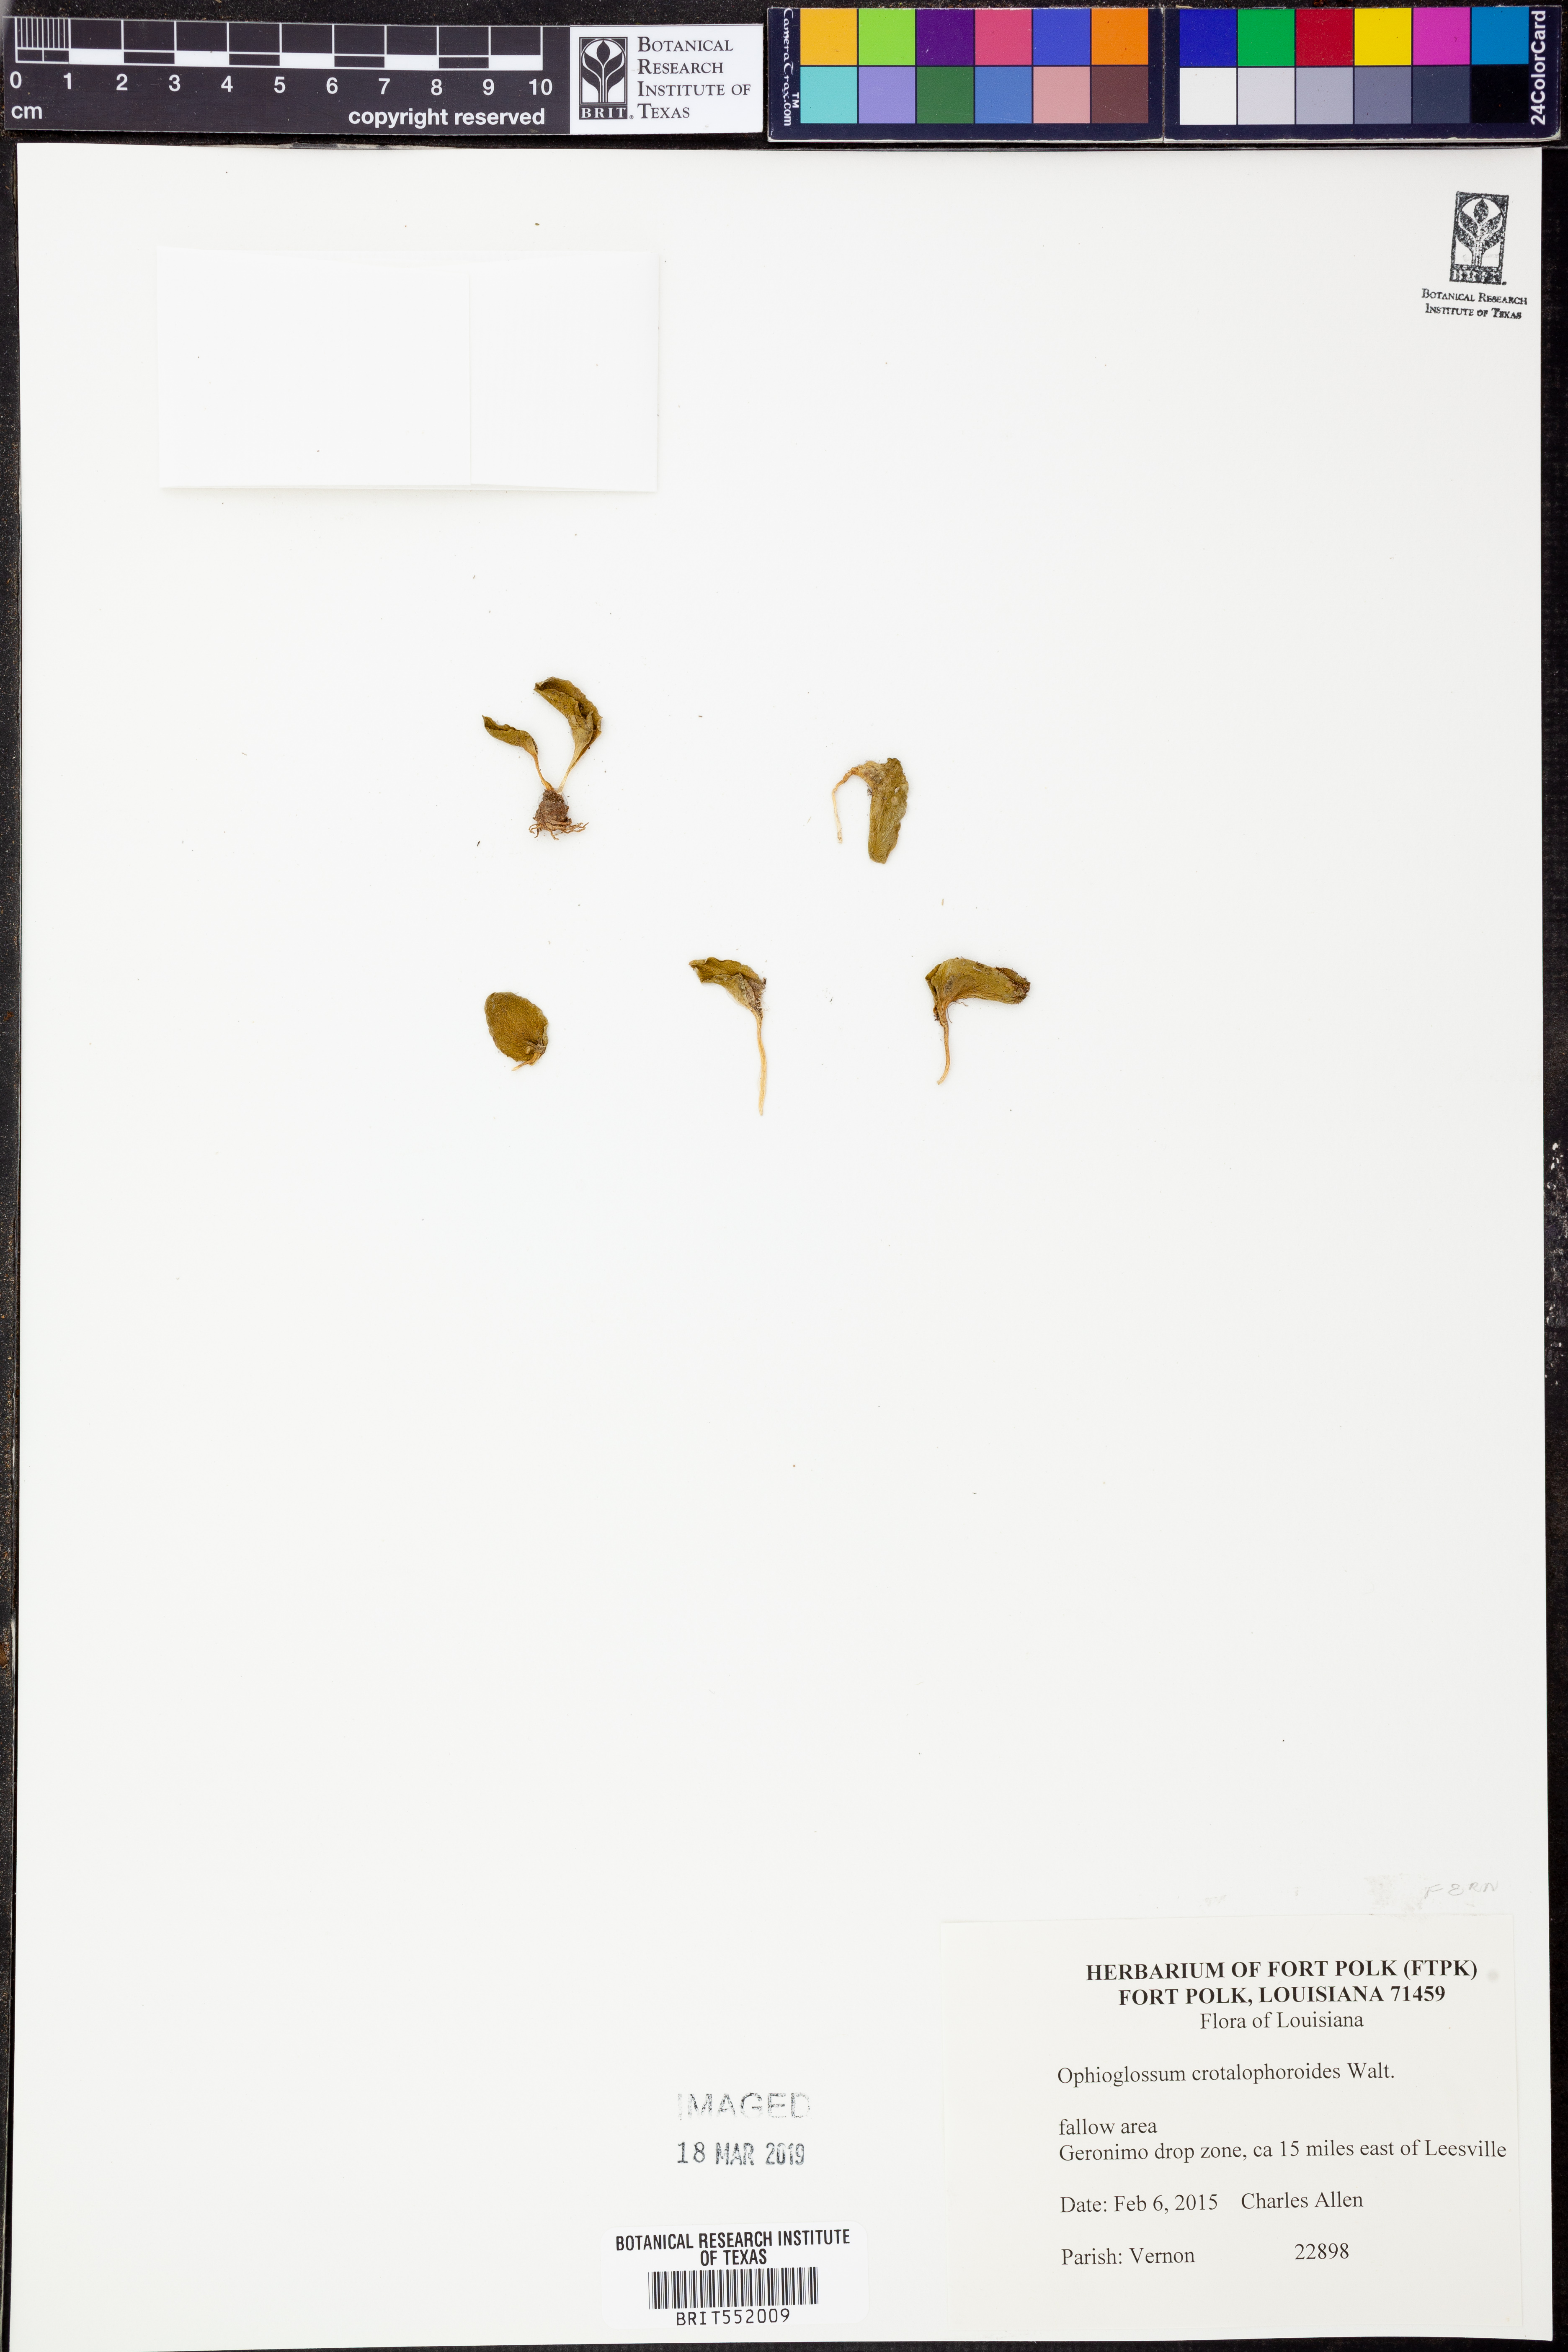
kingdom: Plantae
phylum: Tracheophyta
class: Polypodiopsida
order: Ophioglossales
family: Ophioglossaceae
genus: Ophioglossum
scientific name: Ophioglossum crotalophoroides
